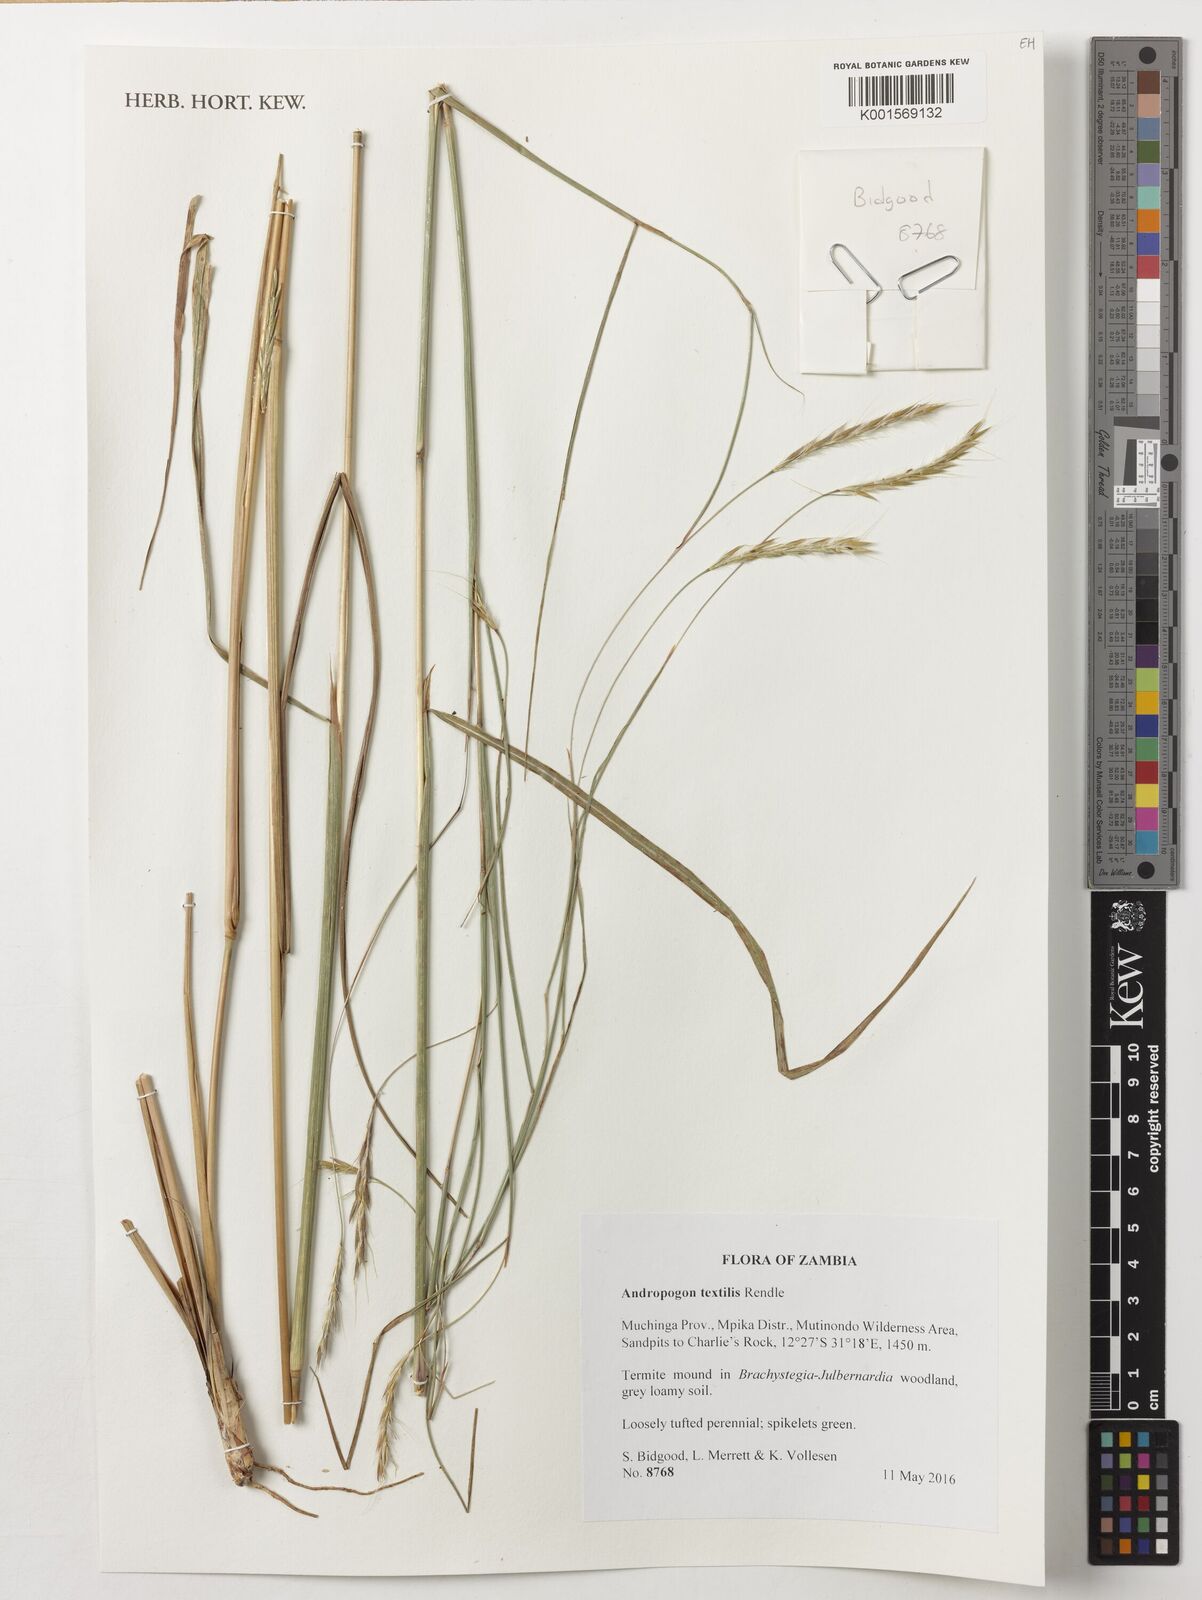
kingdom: Plantae
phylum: Tracheophyta
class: Liliopsida
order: Poales
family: Poaceae
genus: Andropogon
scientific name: Andropogon textilis
